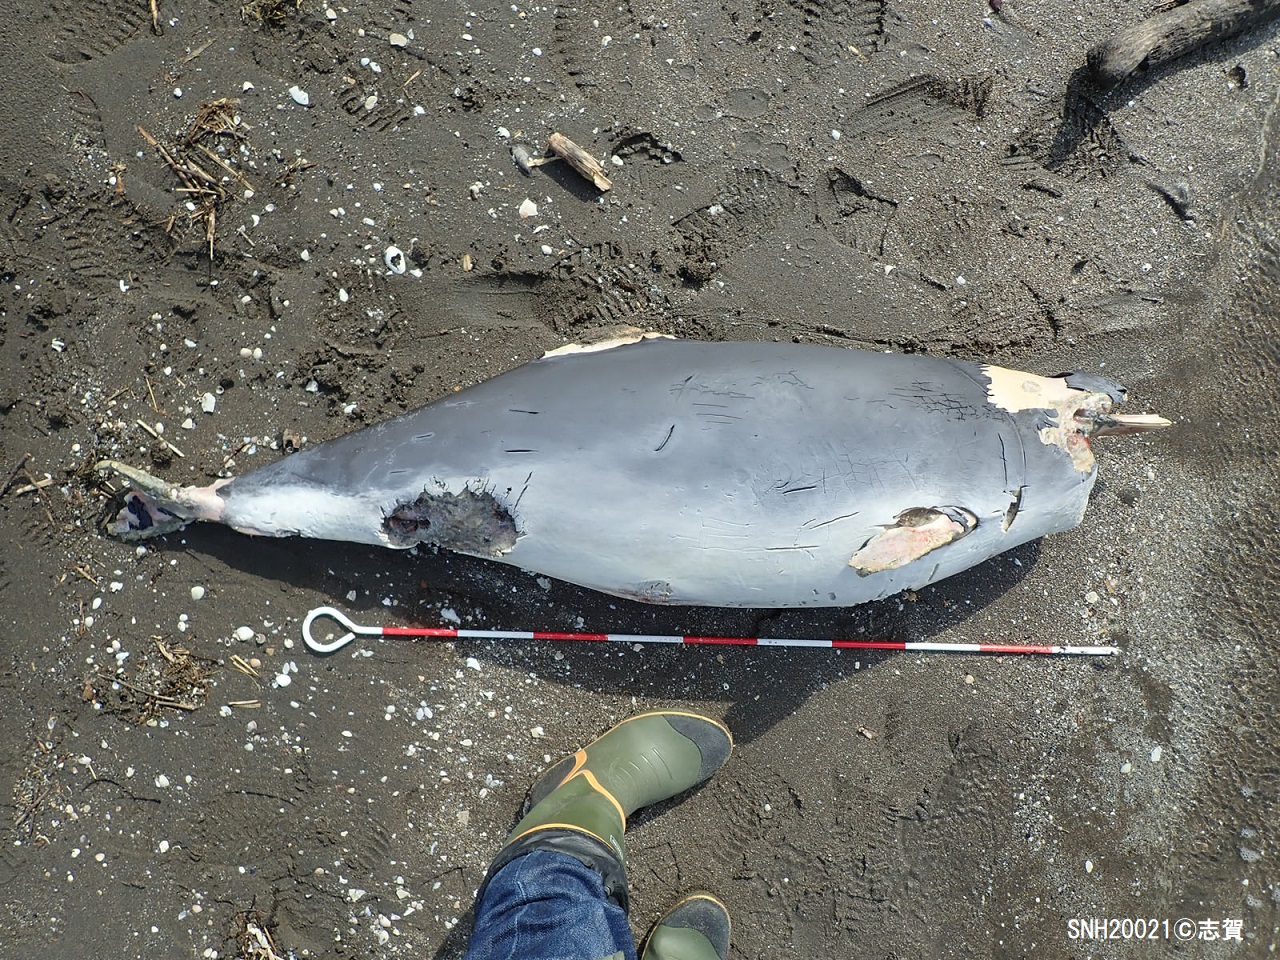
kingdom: Animalia
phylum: Chordata
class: Mammalia
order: Cetacea
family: Phocoenidae
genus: Phocoena
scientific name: Phocoena phocoena
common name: Harbour porpoise
